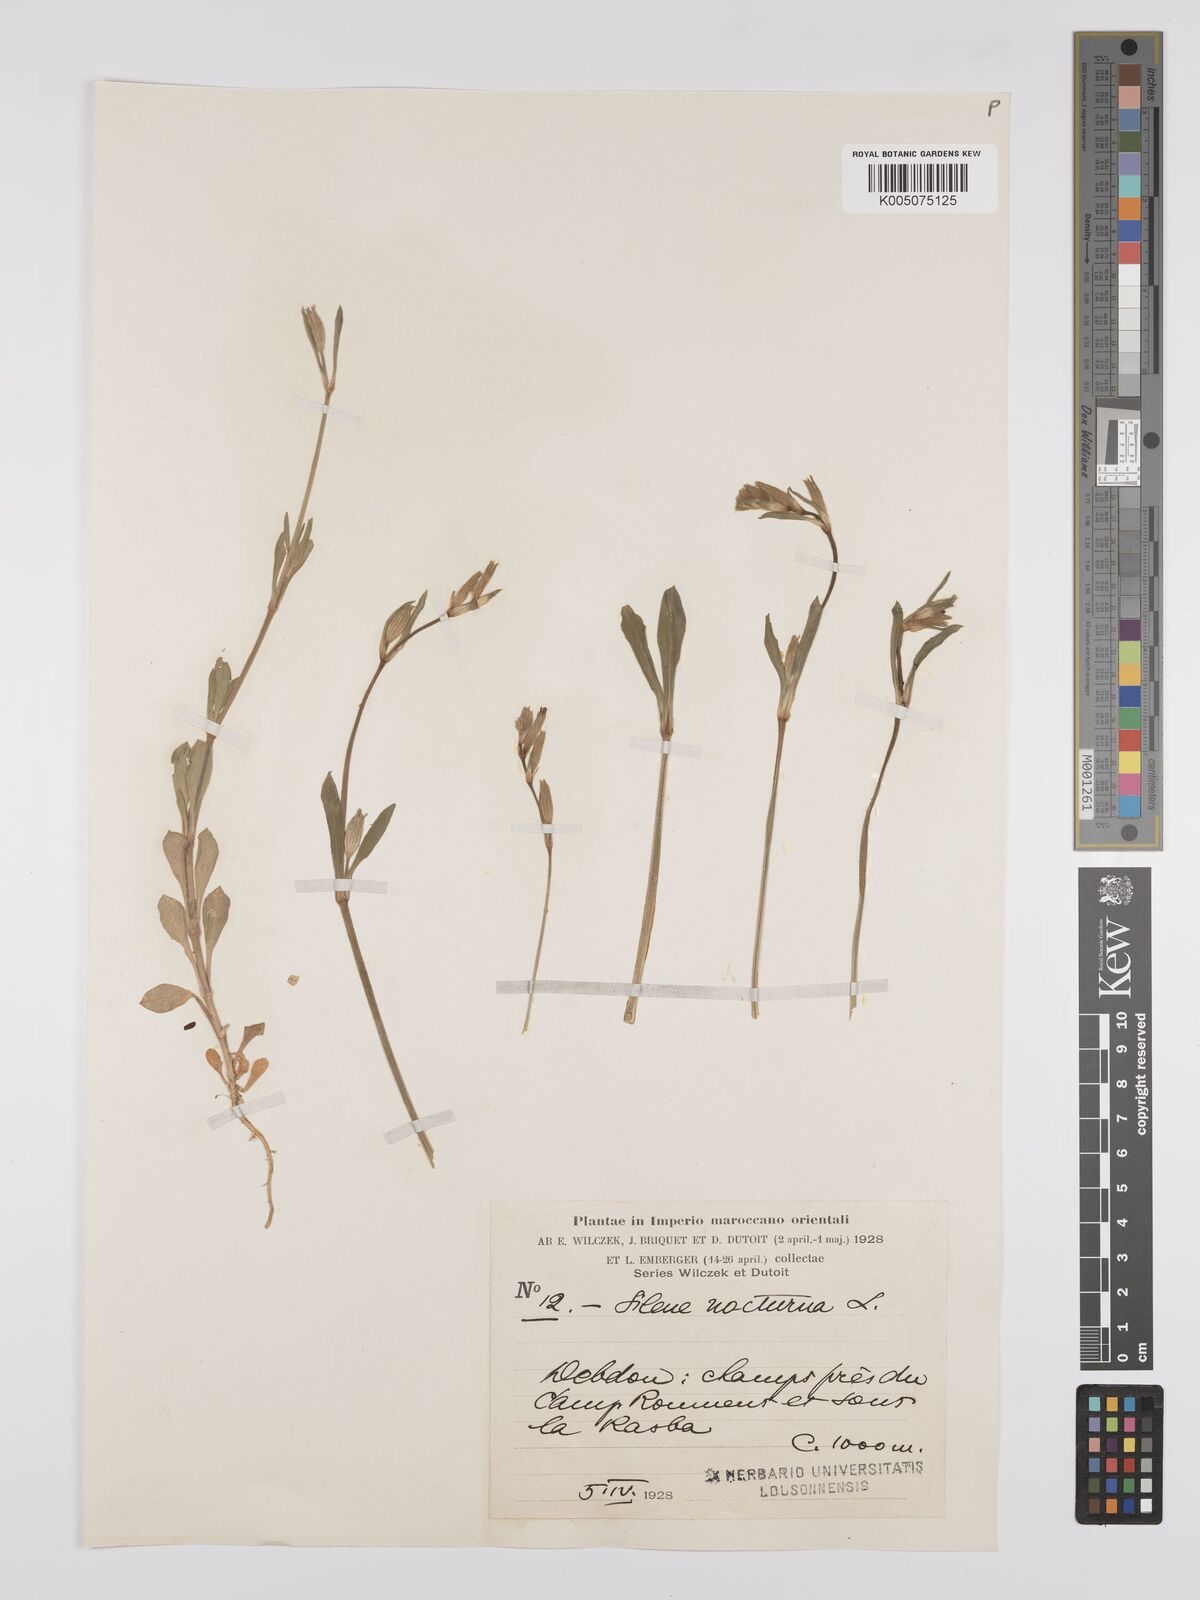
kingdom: Plantae
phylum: Tracheophyta
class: Magnoliopsida
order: Caryophyllales
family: Caryophyllaceae
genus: Silene
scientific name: Silene nocturna
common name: Mediterranean catchfly
